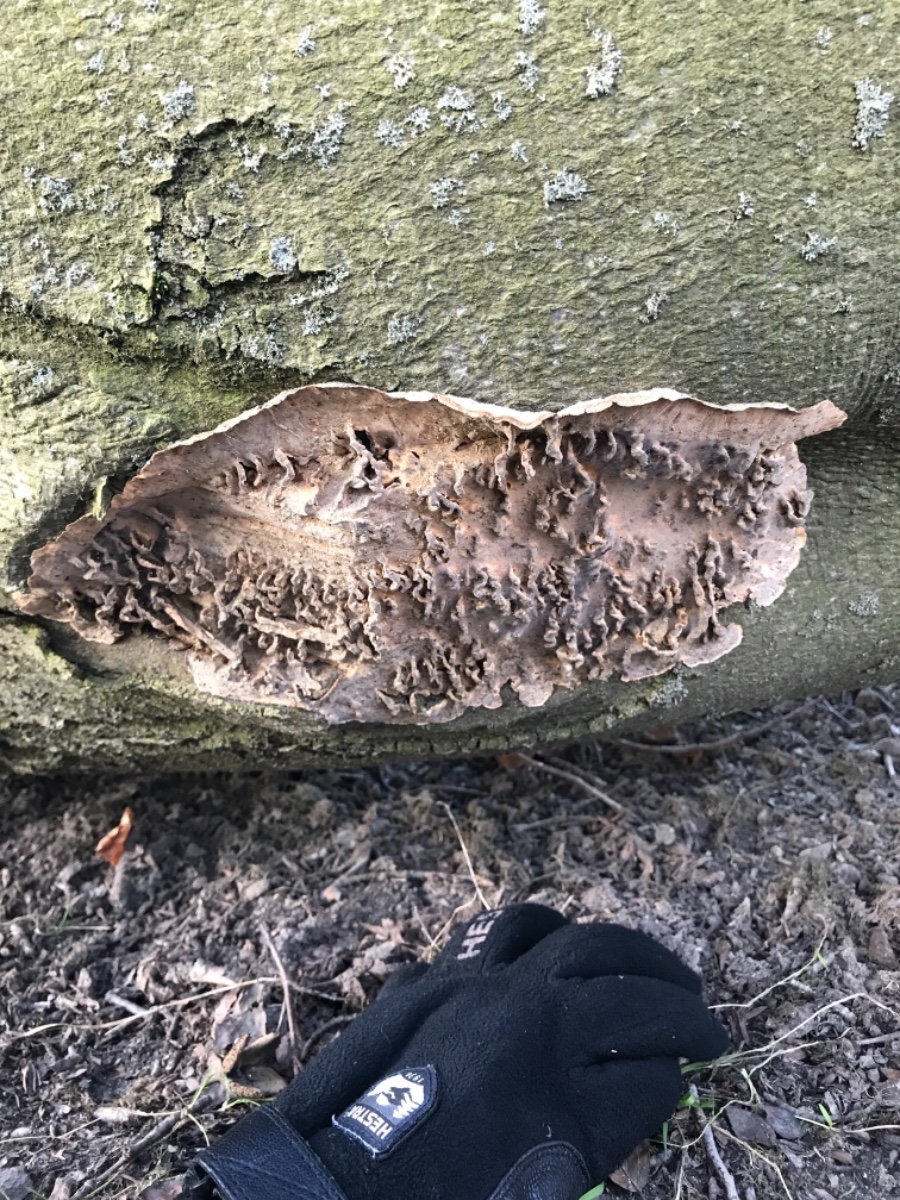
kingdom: Fungi
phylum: Basidiomycota
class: Agaricomycetes
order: Russulales
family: Stereaceae
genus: Stereum
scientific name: Stereum hirsutum
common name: håret lædersvamp
